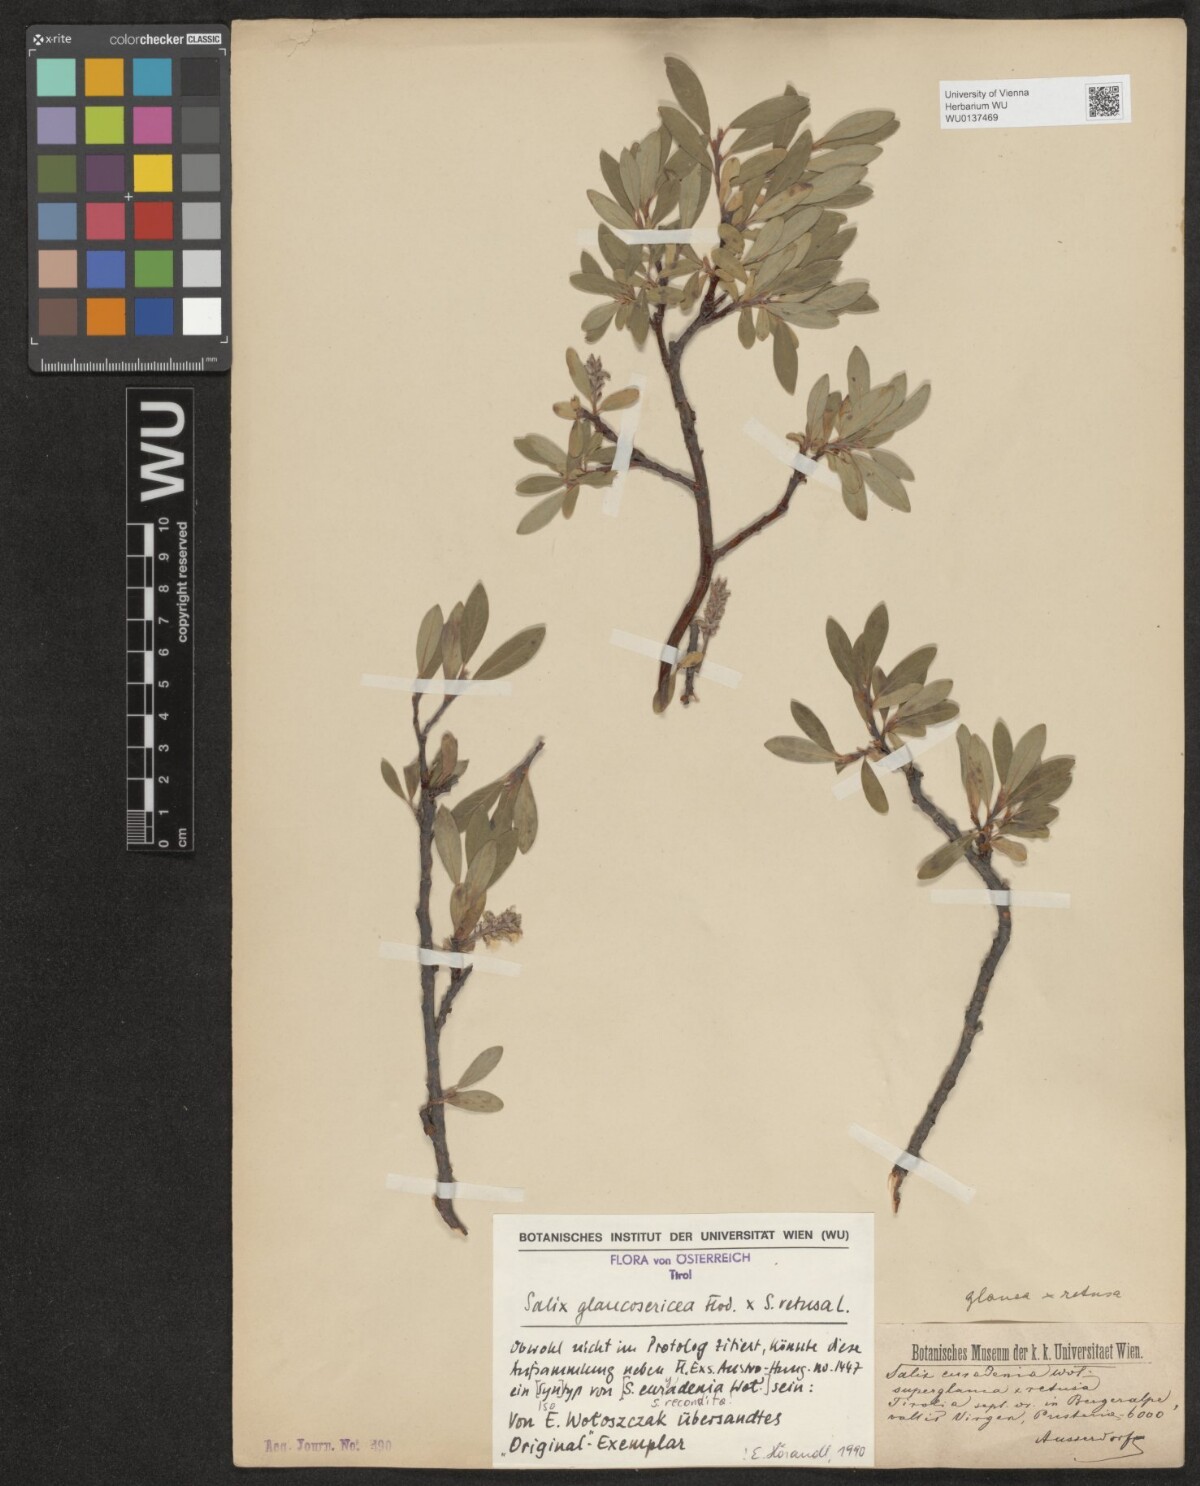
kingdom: Plantae
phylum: Tracheophyta
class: Magnoliopsida
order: Malpighiales
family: Salicaceae
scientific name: Salicaceae
